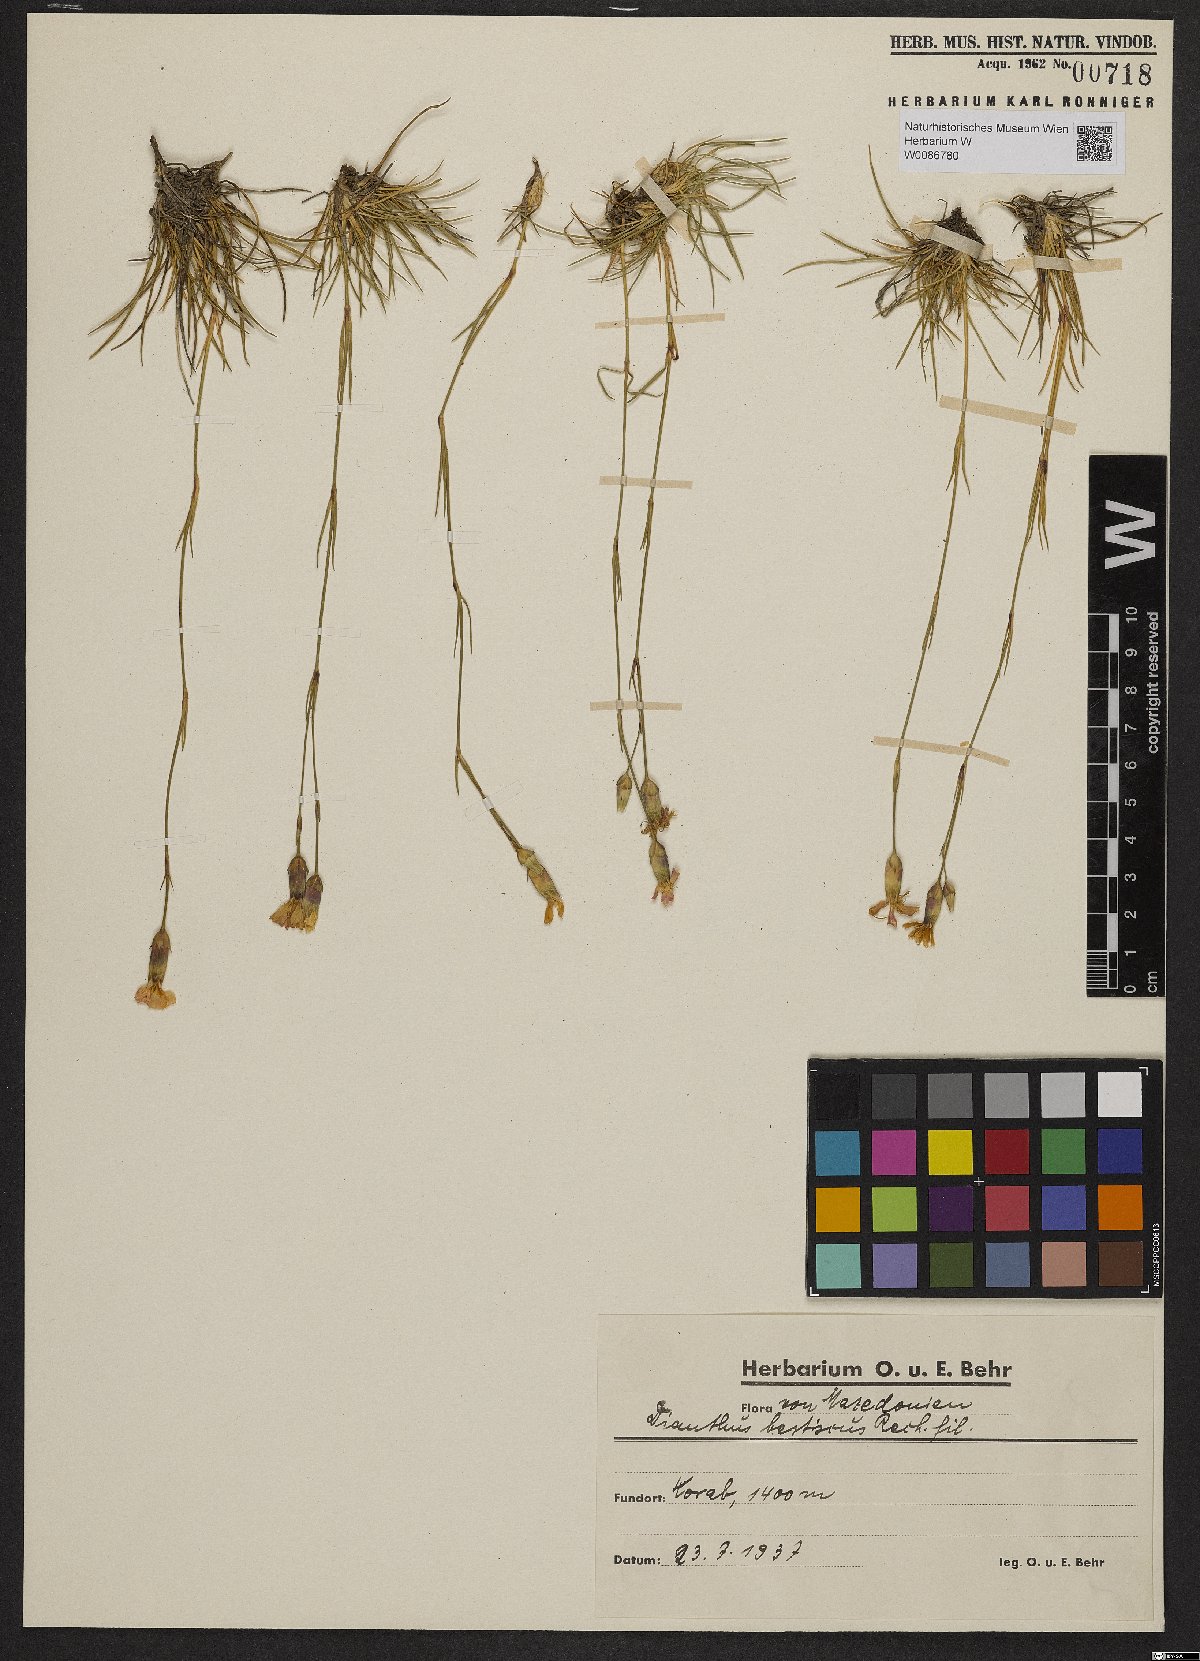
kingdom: Plantae
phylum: Tracheophyta
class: Magnoliopsida
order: Caryophyllales
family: Caryophyllaceae
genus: Dianthus
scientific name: Dianthus sylvestris
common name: Wood pink
